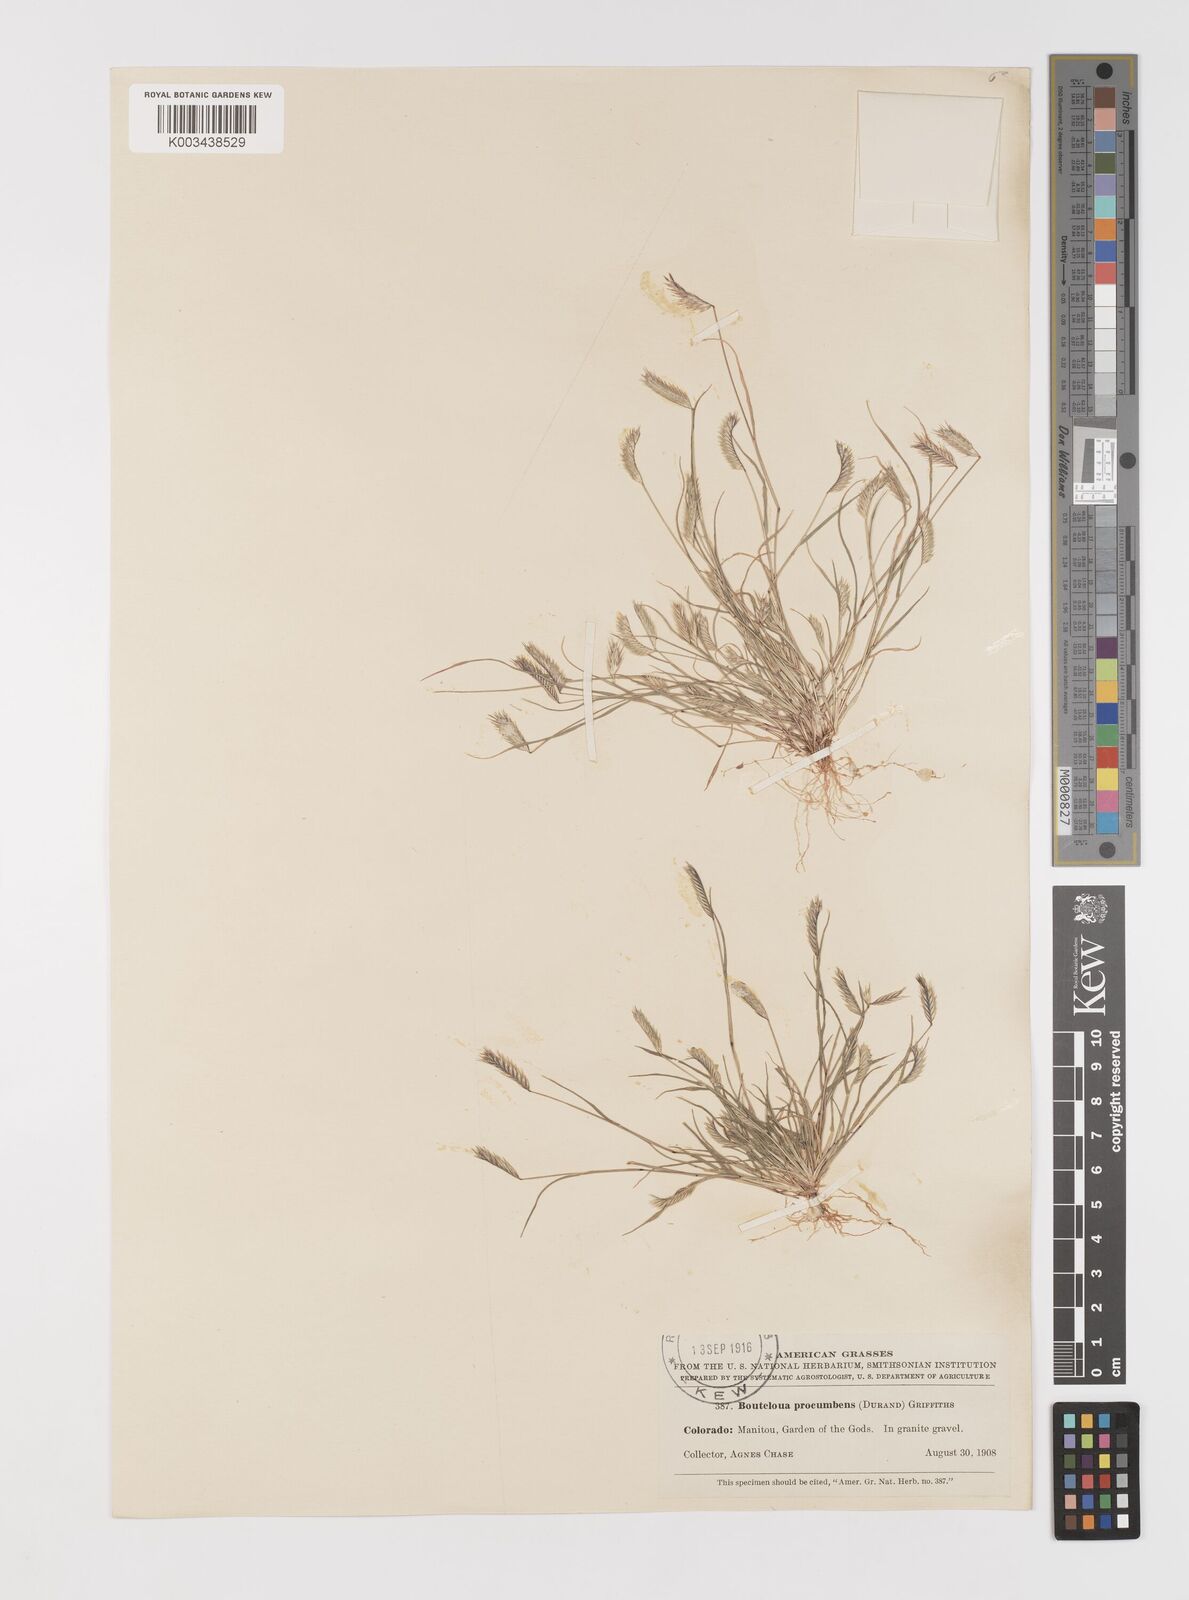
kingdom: Plantae
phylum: Tracheophyta
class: Liliopsida
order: Poales
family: Poaceae
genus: Bouteloua
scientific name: Bouteloua simplex
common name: Mat grama
